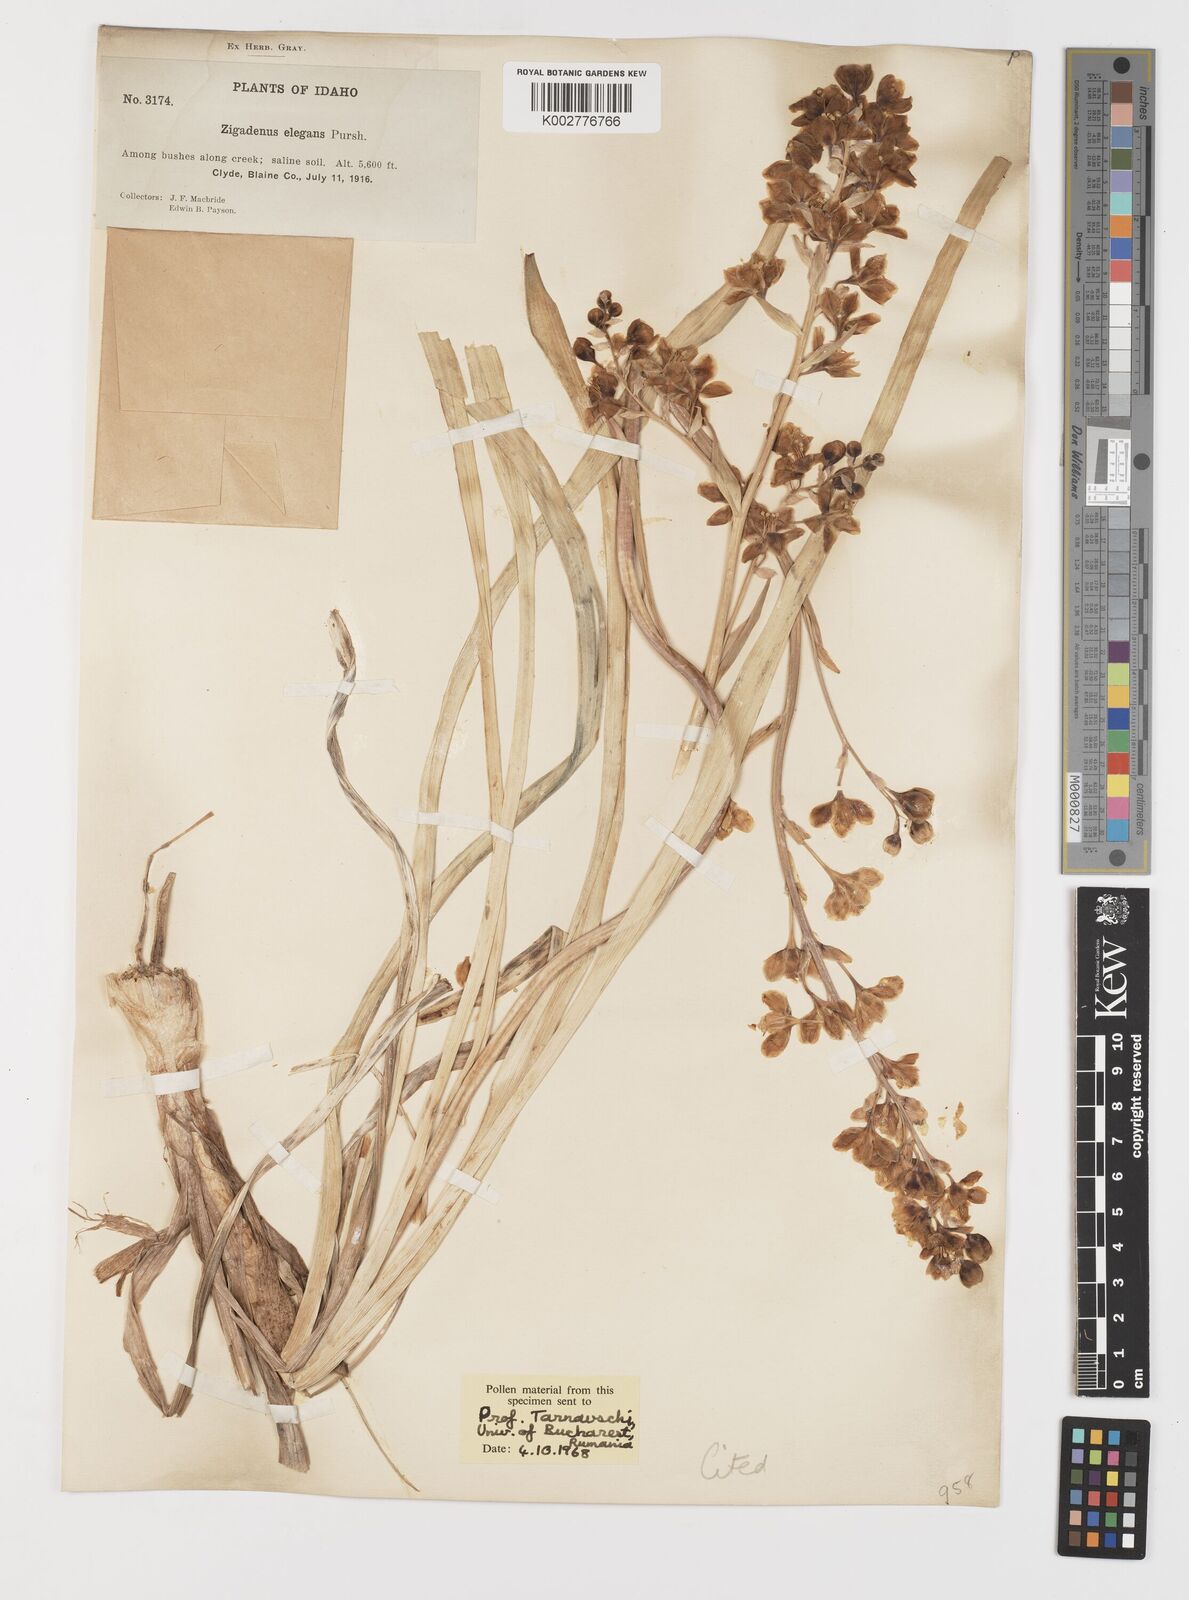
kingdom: Plantae
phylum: Tracheophyta
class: Liliopsida
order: Liliales
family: Melanthiaceae
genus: Anticlea
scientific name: Anticlea elegans
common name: Mountain death camas
